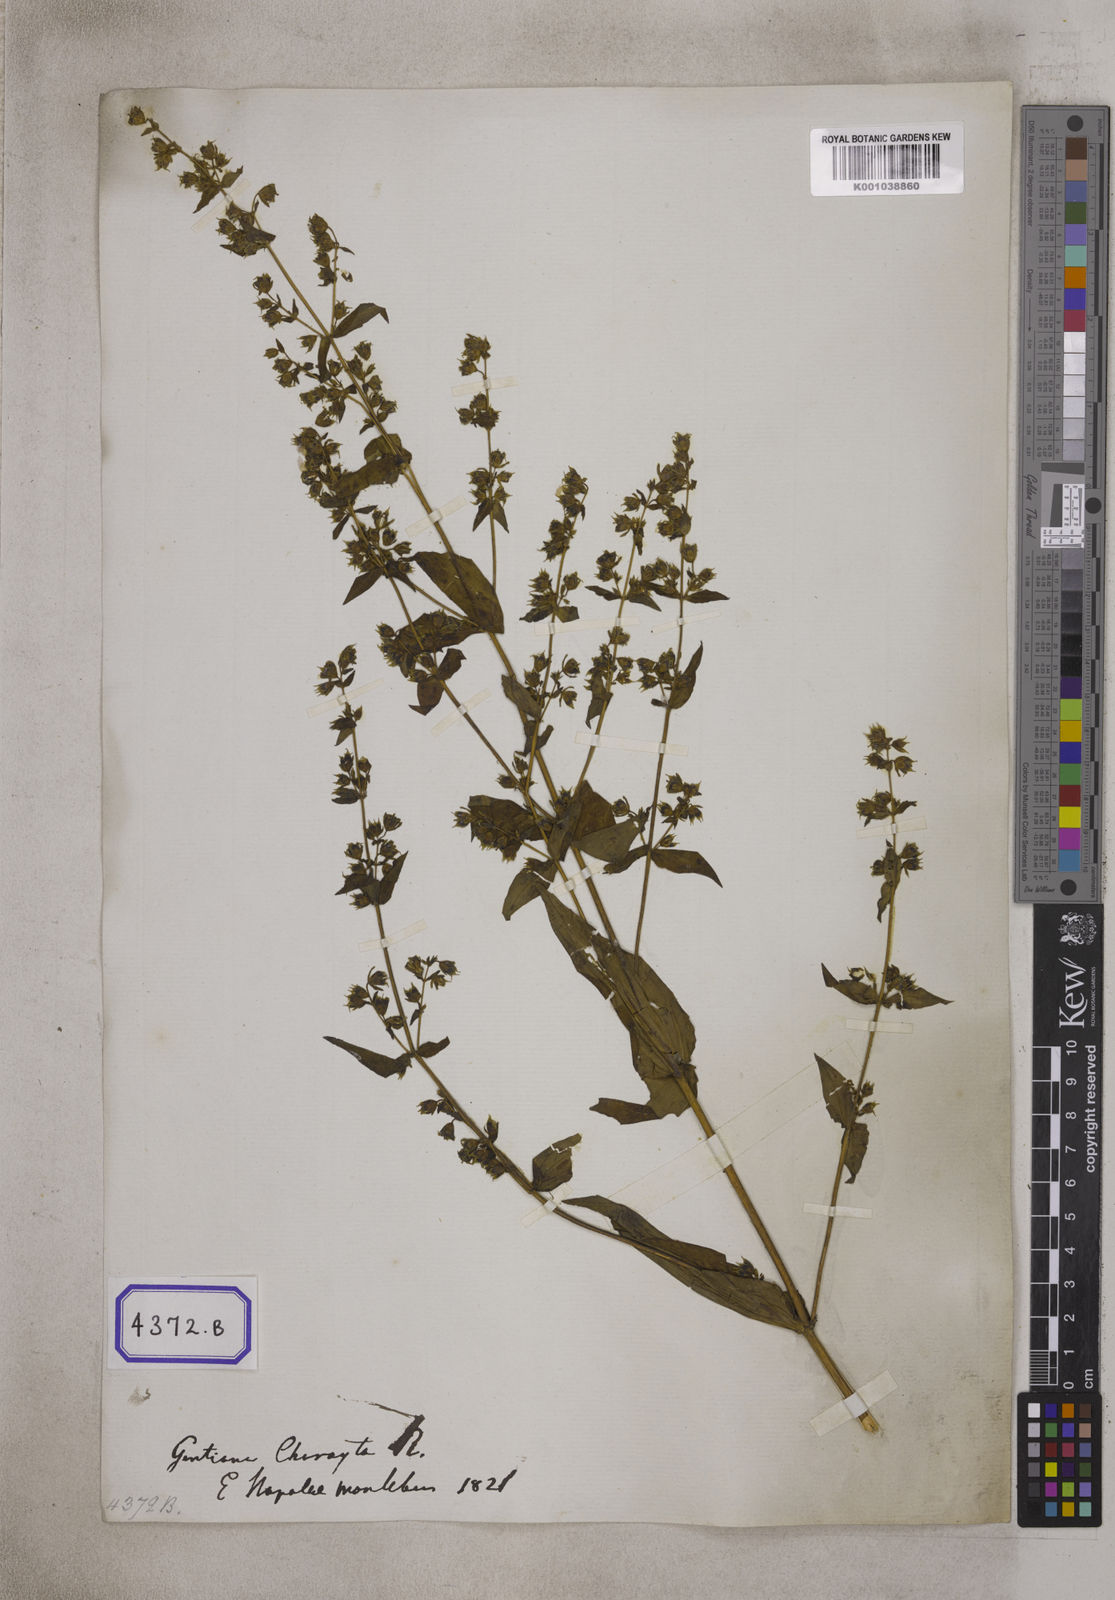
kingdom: Plantae
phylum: Tracheophyta
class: Magnoliopsida
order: Gentianales
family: Gentianaceae
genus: Swertia
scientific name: Swertia chirayita
